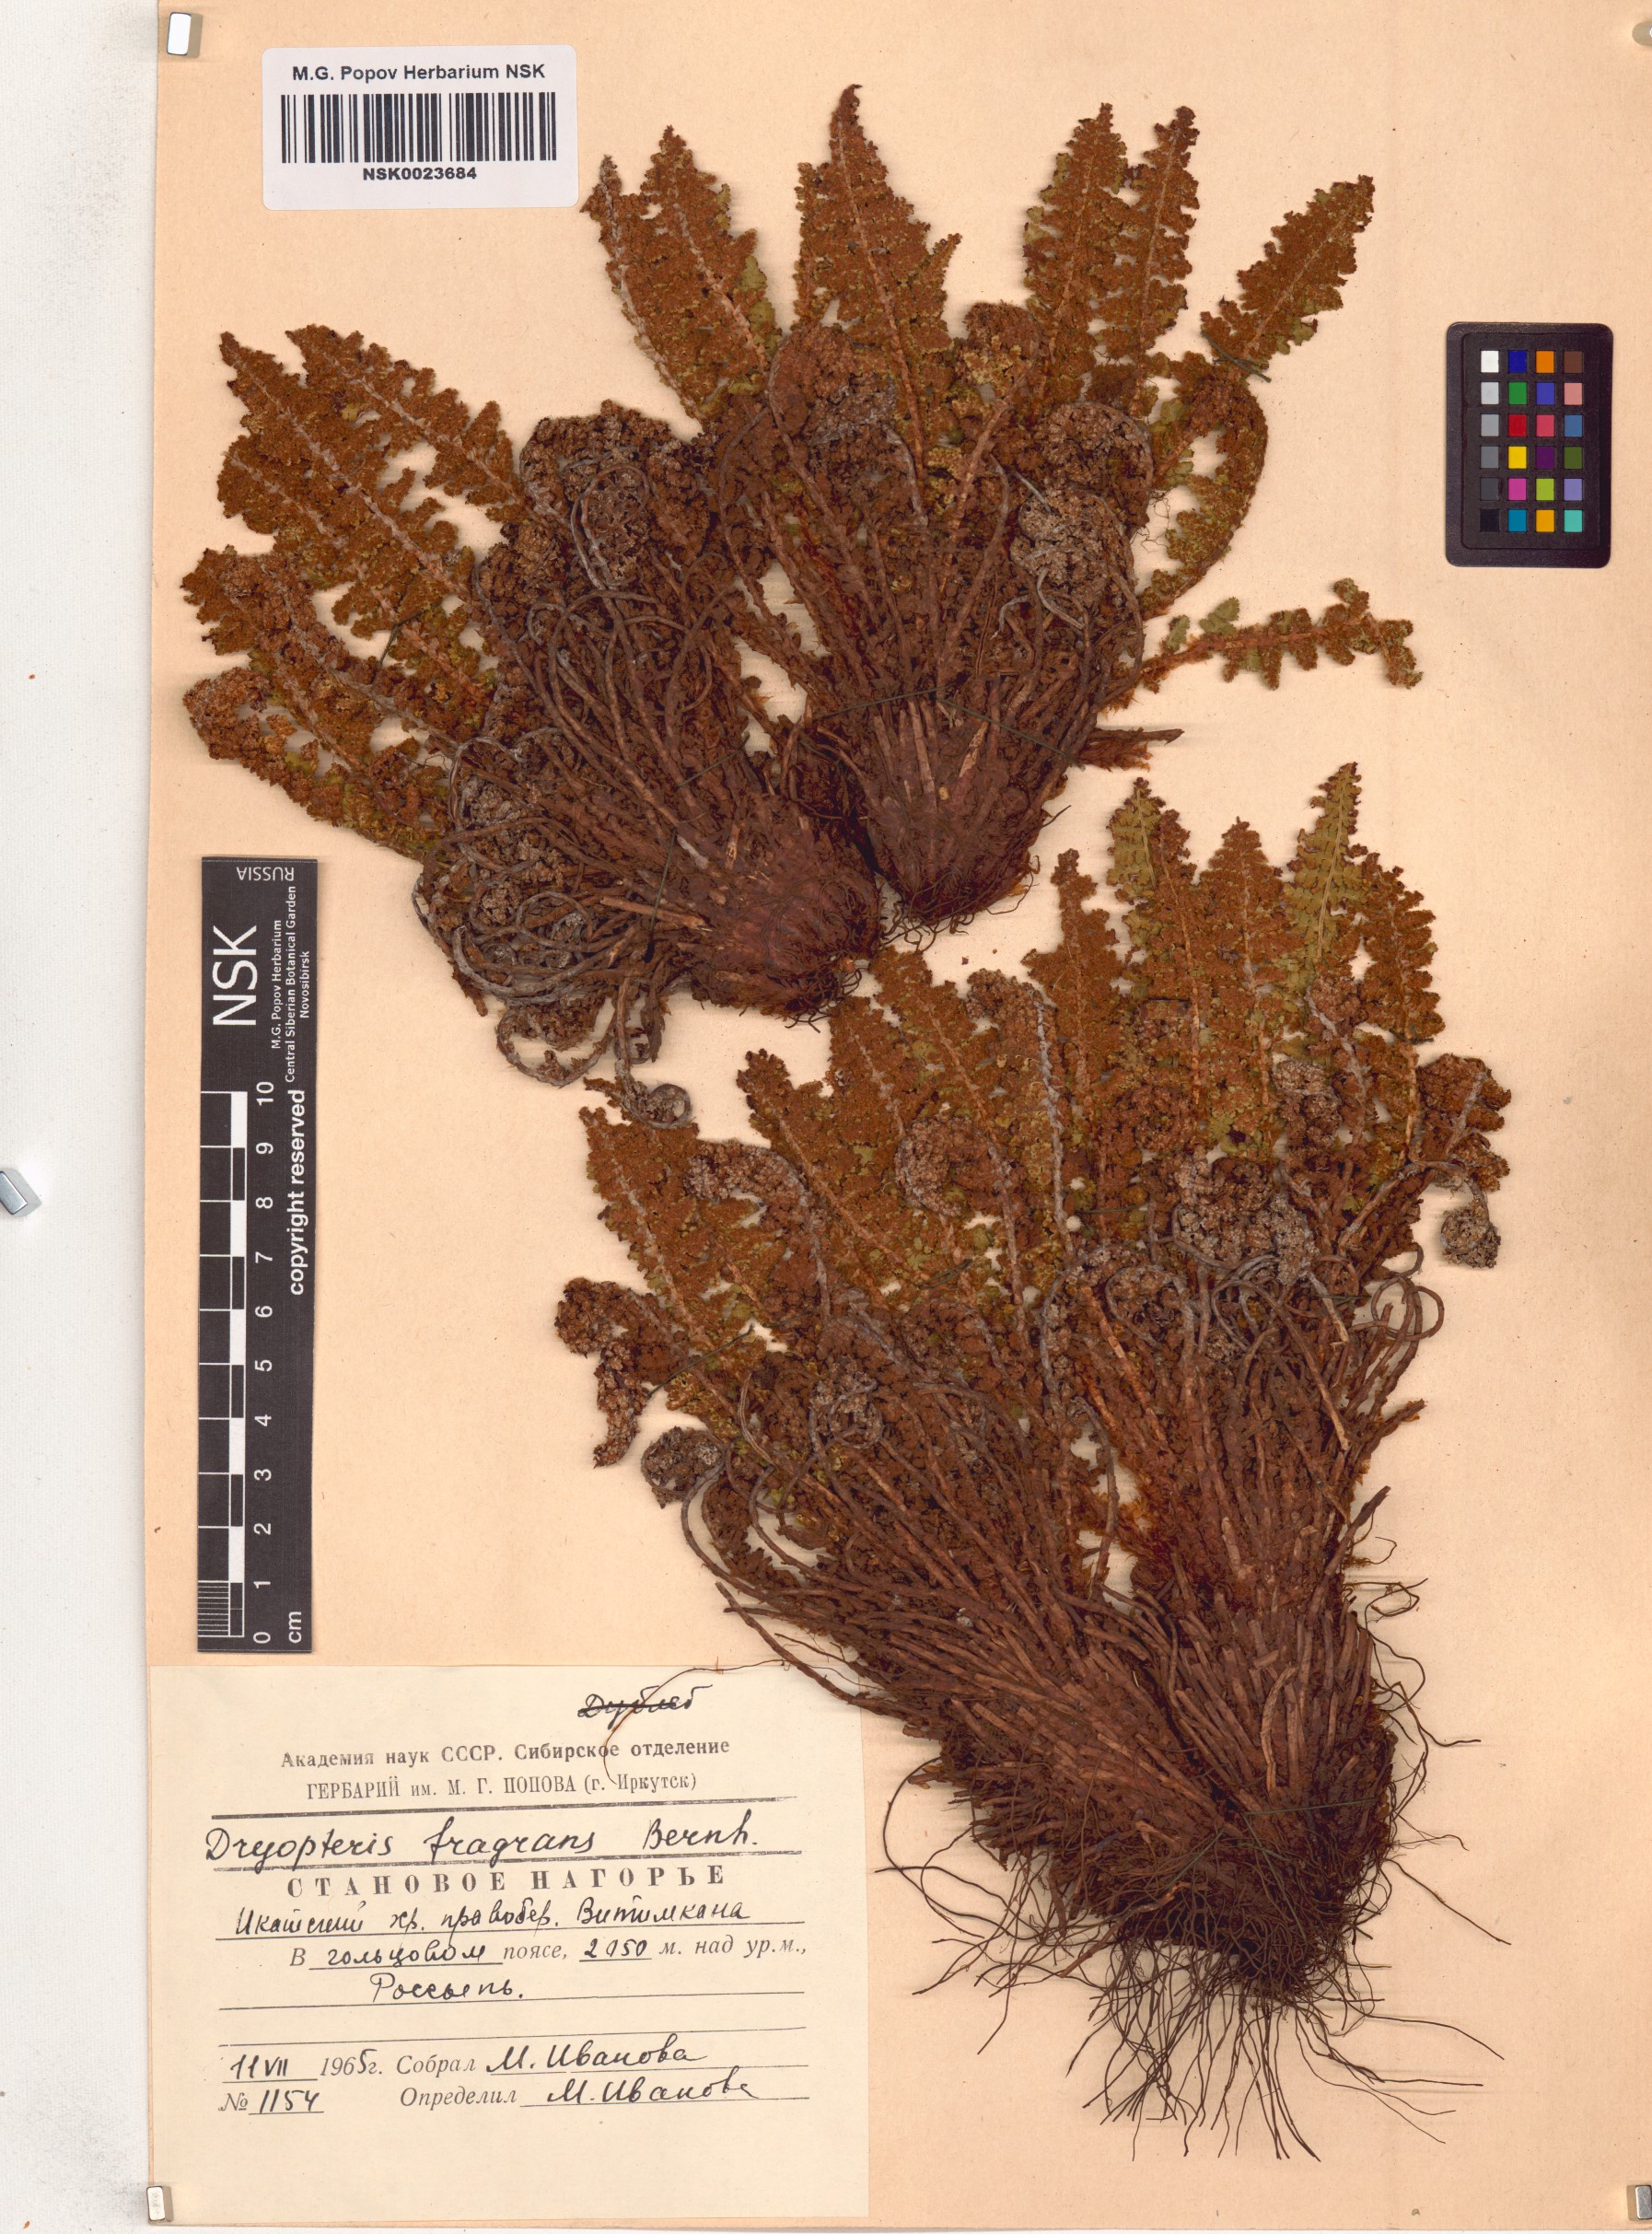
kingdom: Plantae
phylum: Tracheophyta
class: Polypodiopsida
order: Polypodiales
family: Dryopteridaceae
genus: Dryopteris
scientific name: Dryopteris fragrans
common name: Fragrant wood fern
